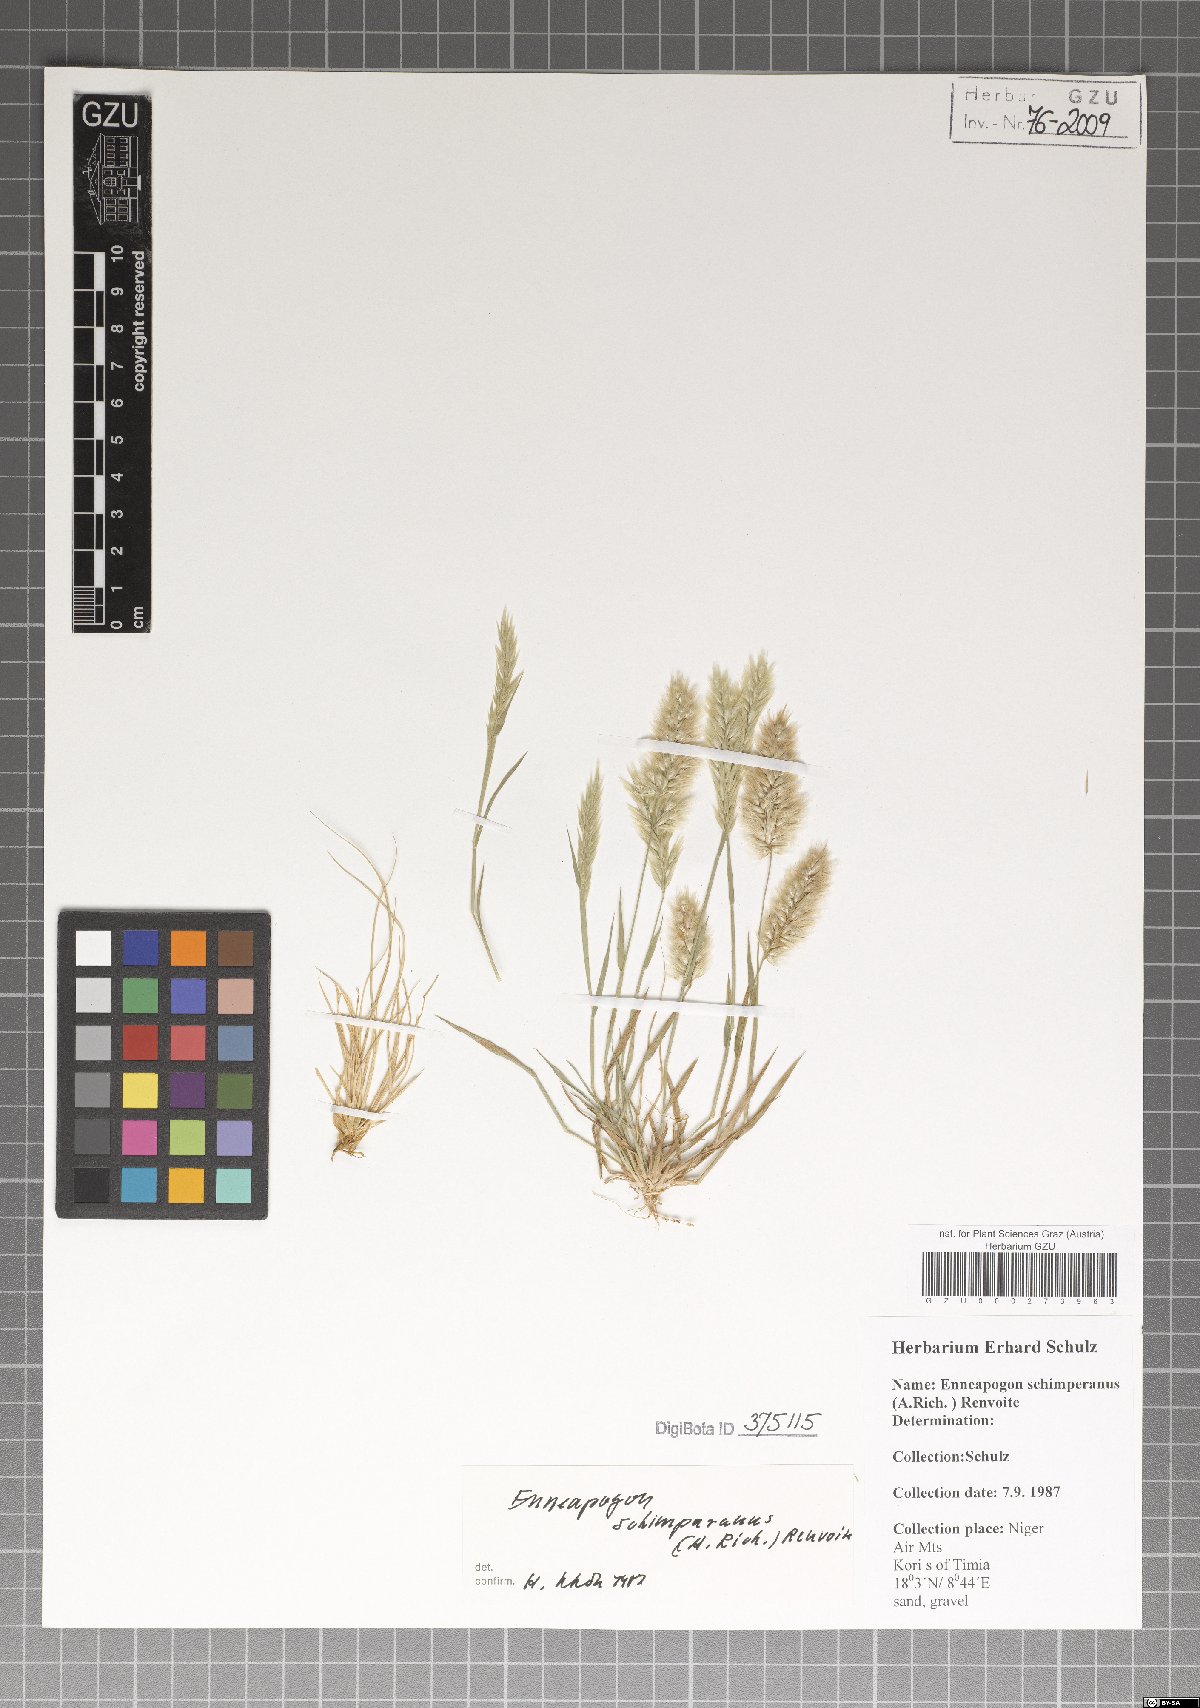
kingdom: Plantae
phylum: Tracheophyta
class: Liliopsida
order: Poales
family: Poaceae
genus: Enneapogon
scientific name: Enneapogon persicus
